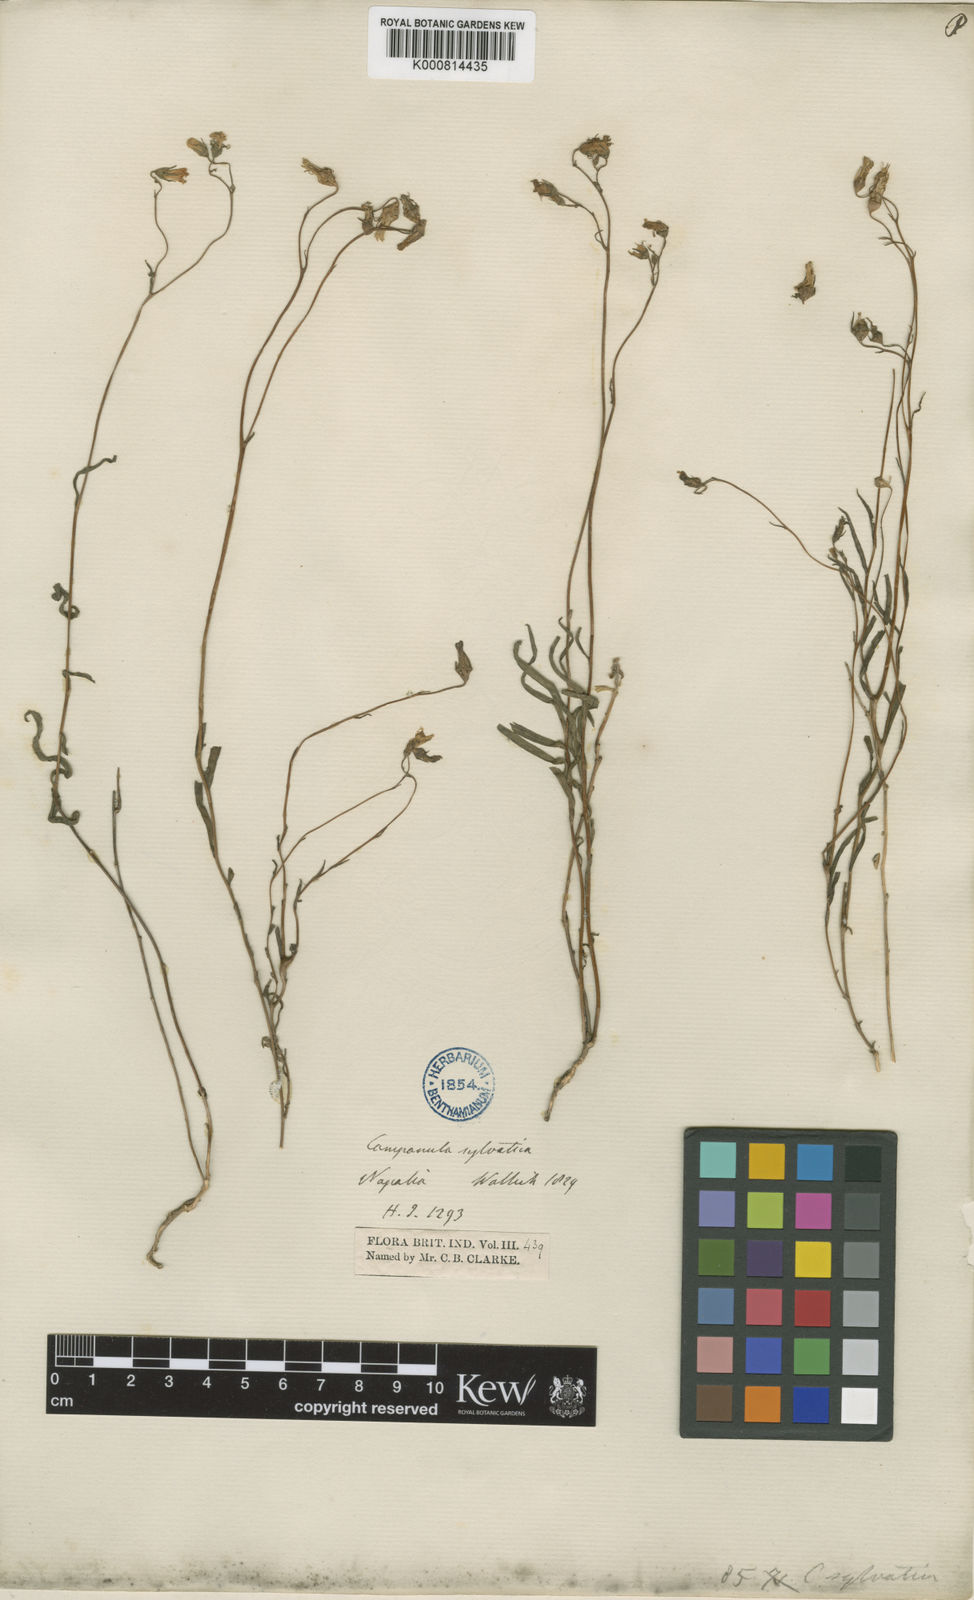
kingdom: Plantae
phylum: Tracheophyta
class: Magnoliopsida
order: Asterales
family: Campanulaceae
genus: Campanula
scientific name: Campanula sylvatica
